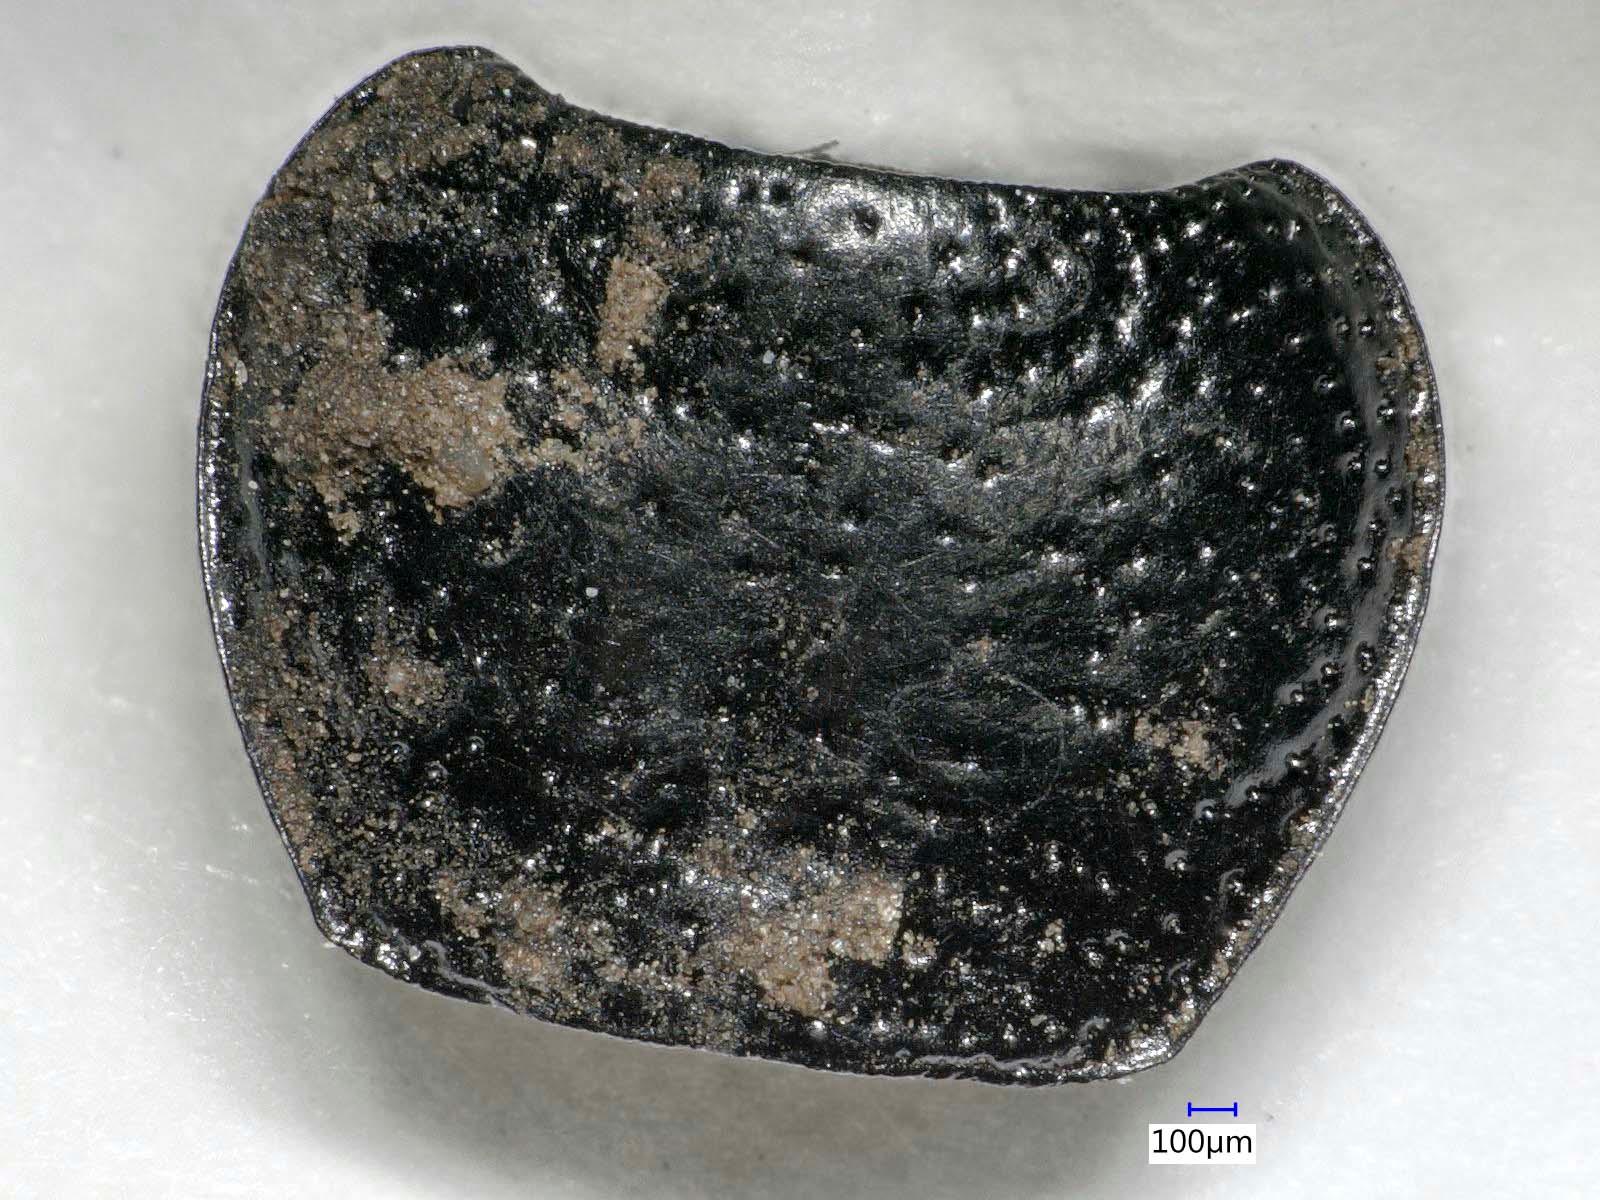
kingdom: Animalia
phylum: Arthropoda
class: Insecta
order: Coleoptera
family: Carabidae
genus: Dicheirus
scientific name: Dicheirus dilatatus
